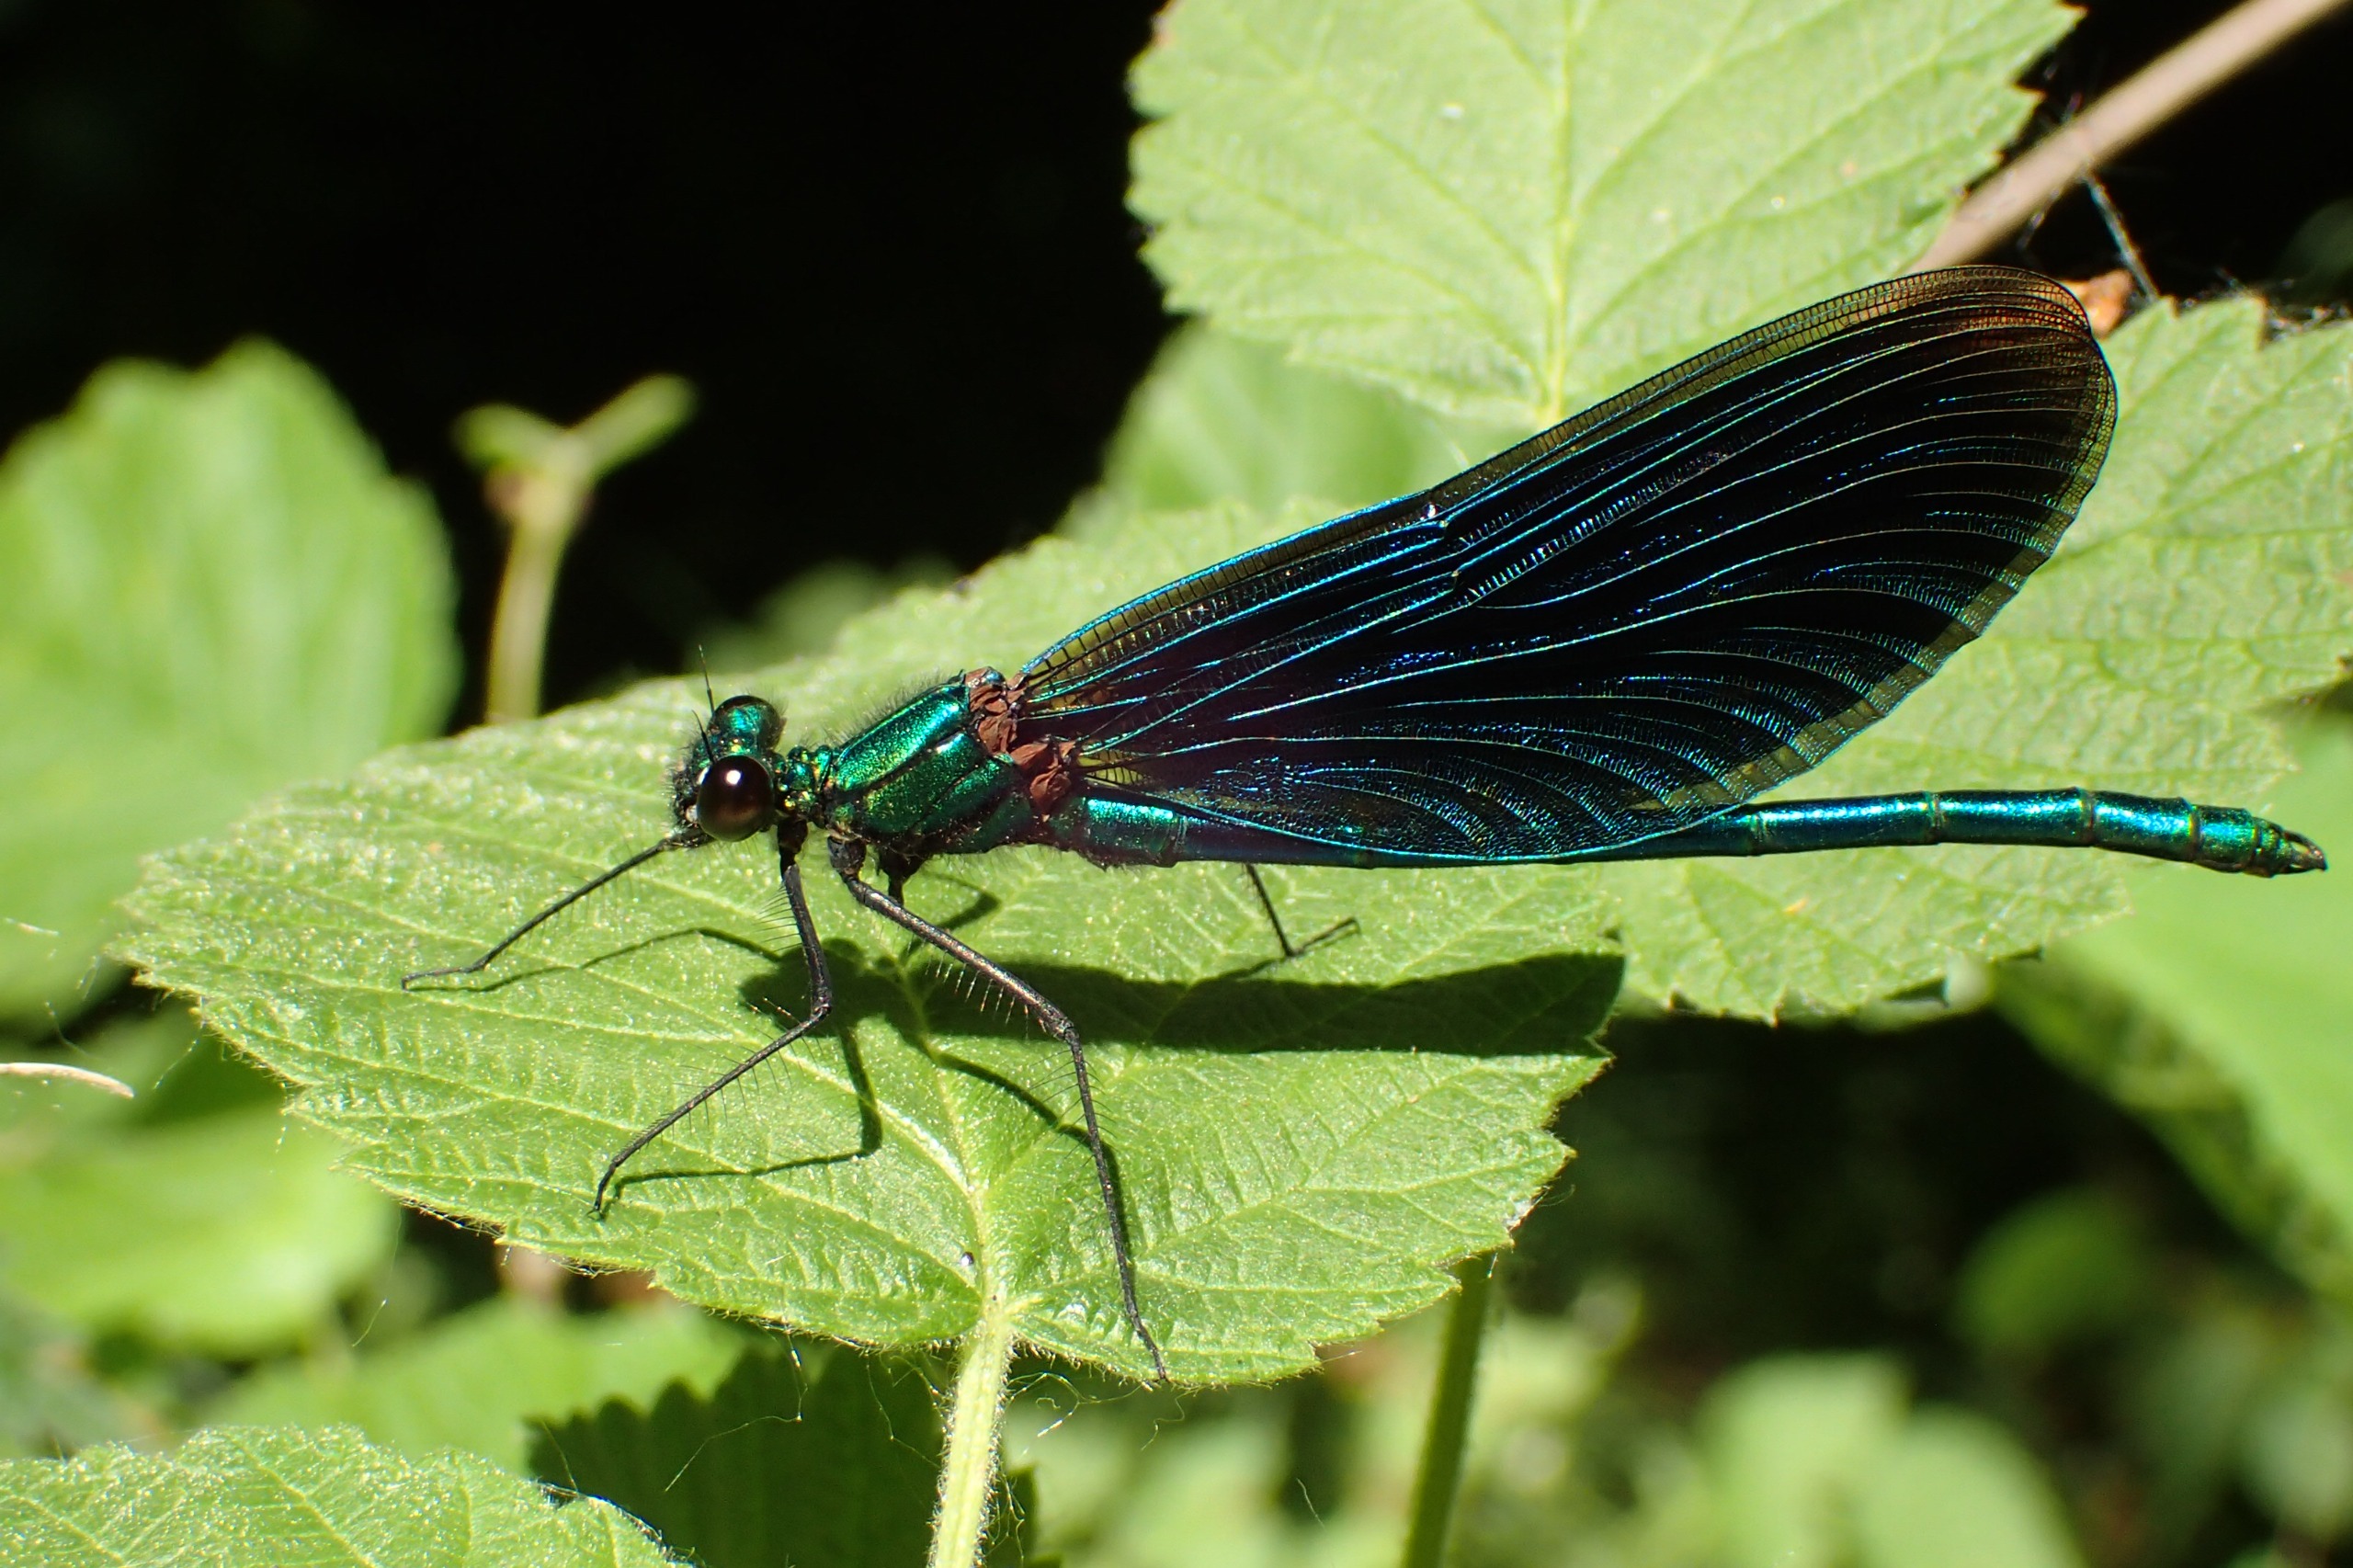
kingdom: Animalia
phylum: Arthropoda
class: Insecta
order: Odonata
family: Calopterygidae
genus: Calopteryx
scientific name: Calopteryx virgo
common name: Blåvinget pragtvandnymfe
